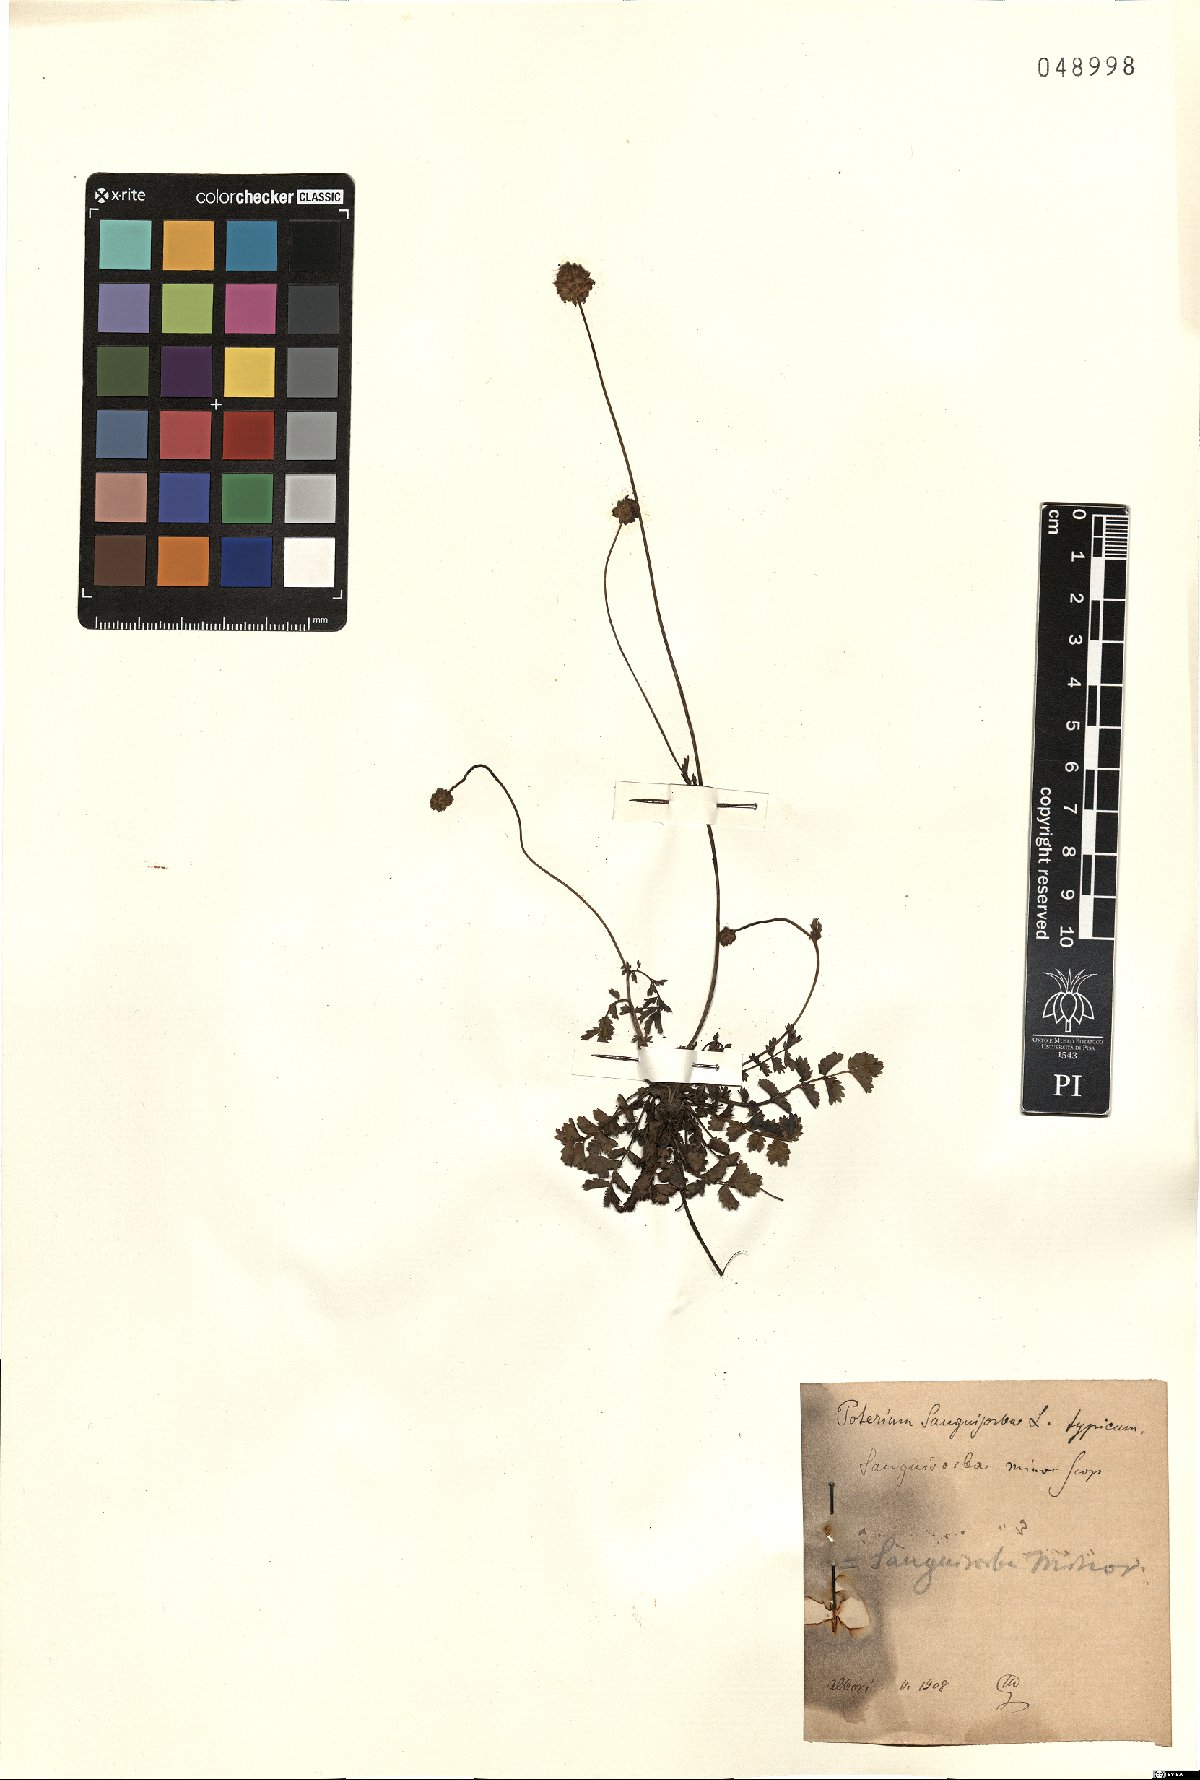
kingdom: Plantae
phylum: Tracheophyta
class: Magnoliopsida
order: Rosales
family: Rosaceae
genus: Poterium
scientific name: Poterium sanguisorba
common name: Salad burnet
